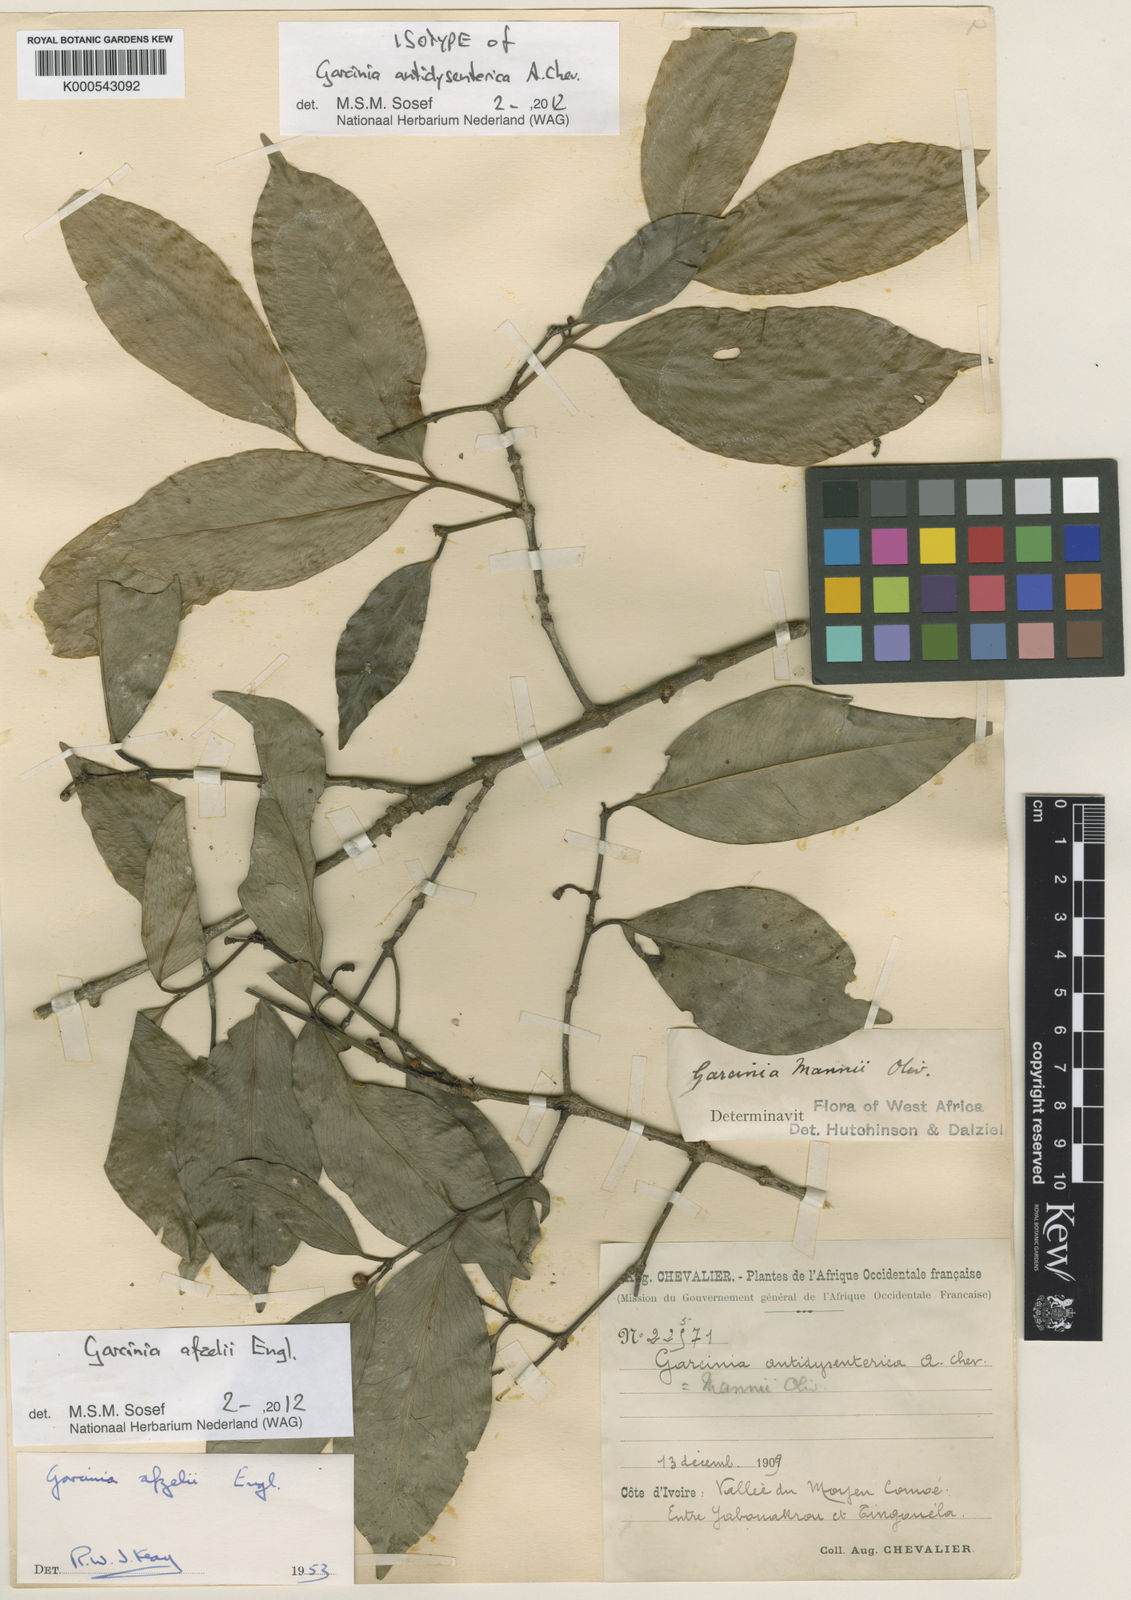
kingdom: Plantae
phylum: Tracheophyta
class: Magnoliopsida
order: Malpighiales
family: Clusiaceae
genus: Garcinia
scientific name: Garcinia afzelii
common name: Bitter-kola
